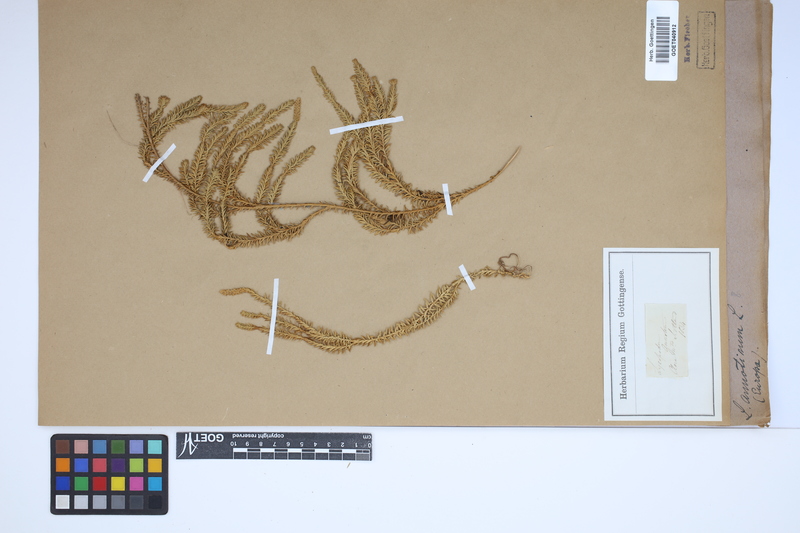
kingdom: Plantae
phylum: Tracheophyta
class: Lycopodiopsida
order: Lycopodiales
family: Lycopodiaceae
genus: Spinulum
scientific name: Spinulum annotinum
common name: Interrupted club-moss
